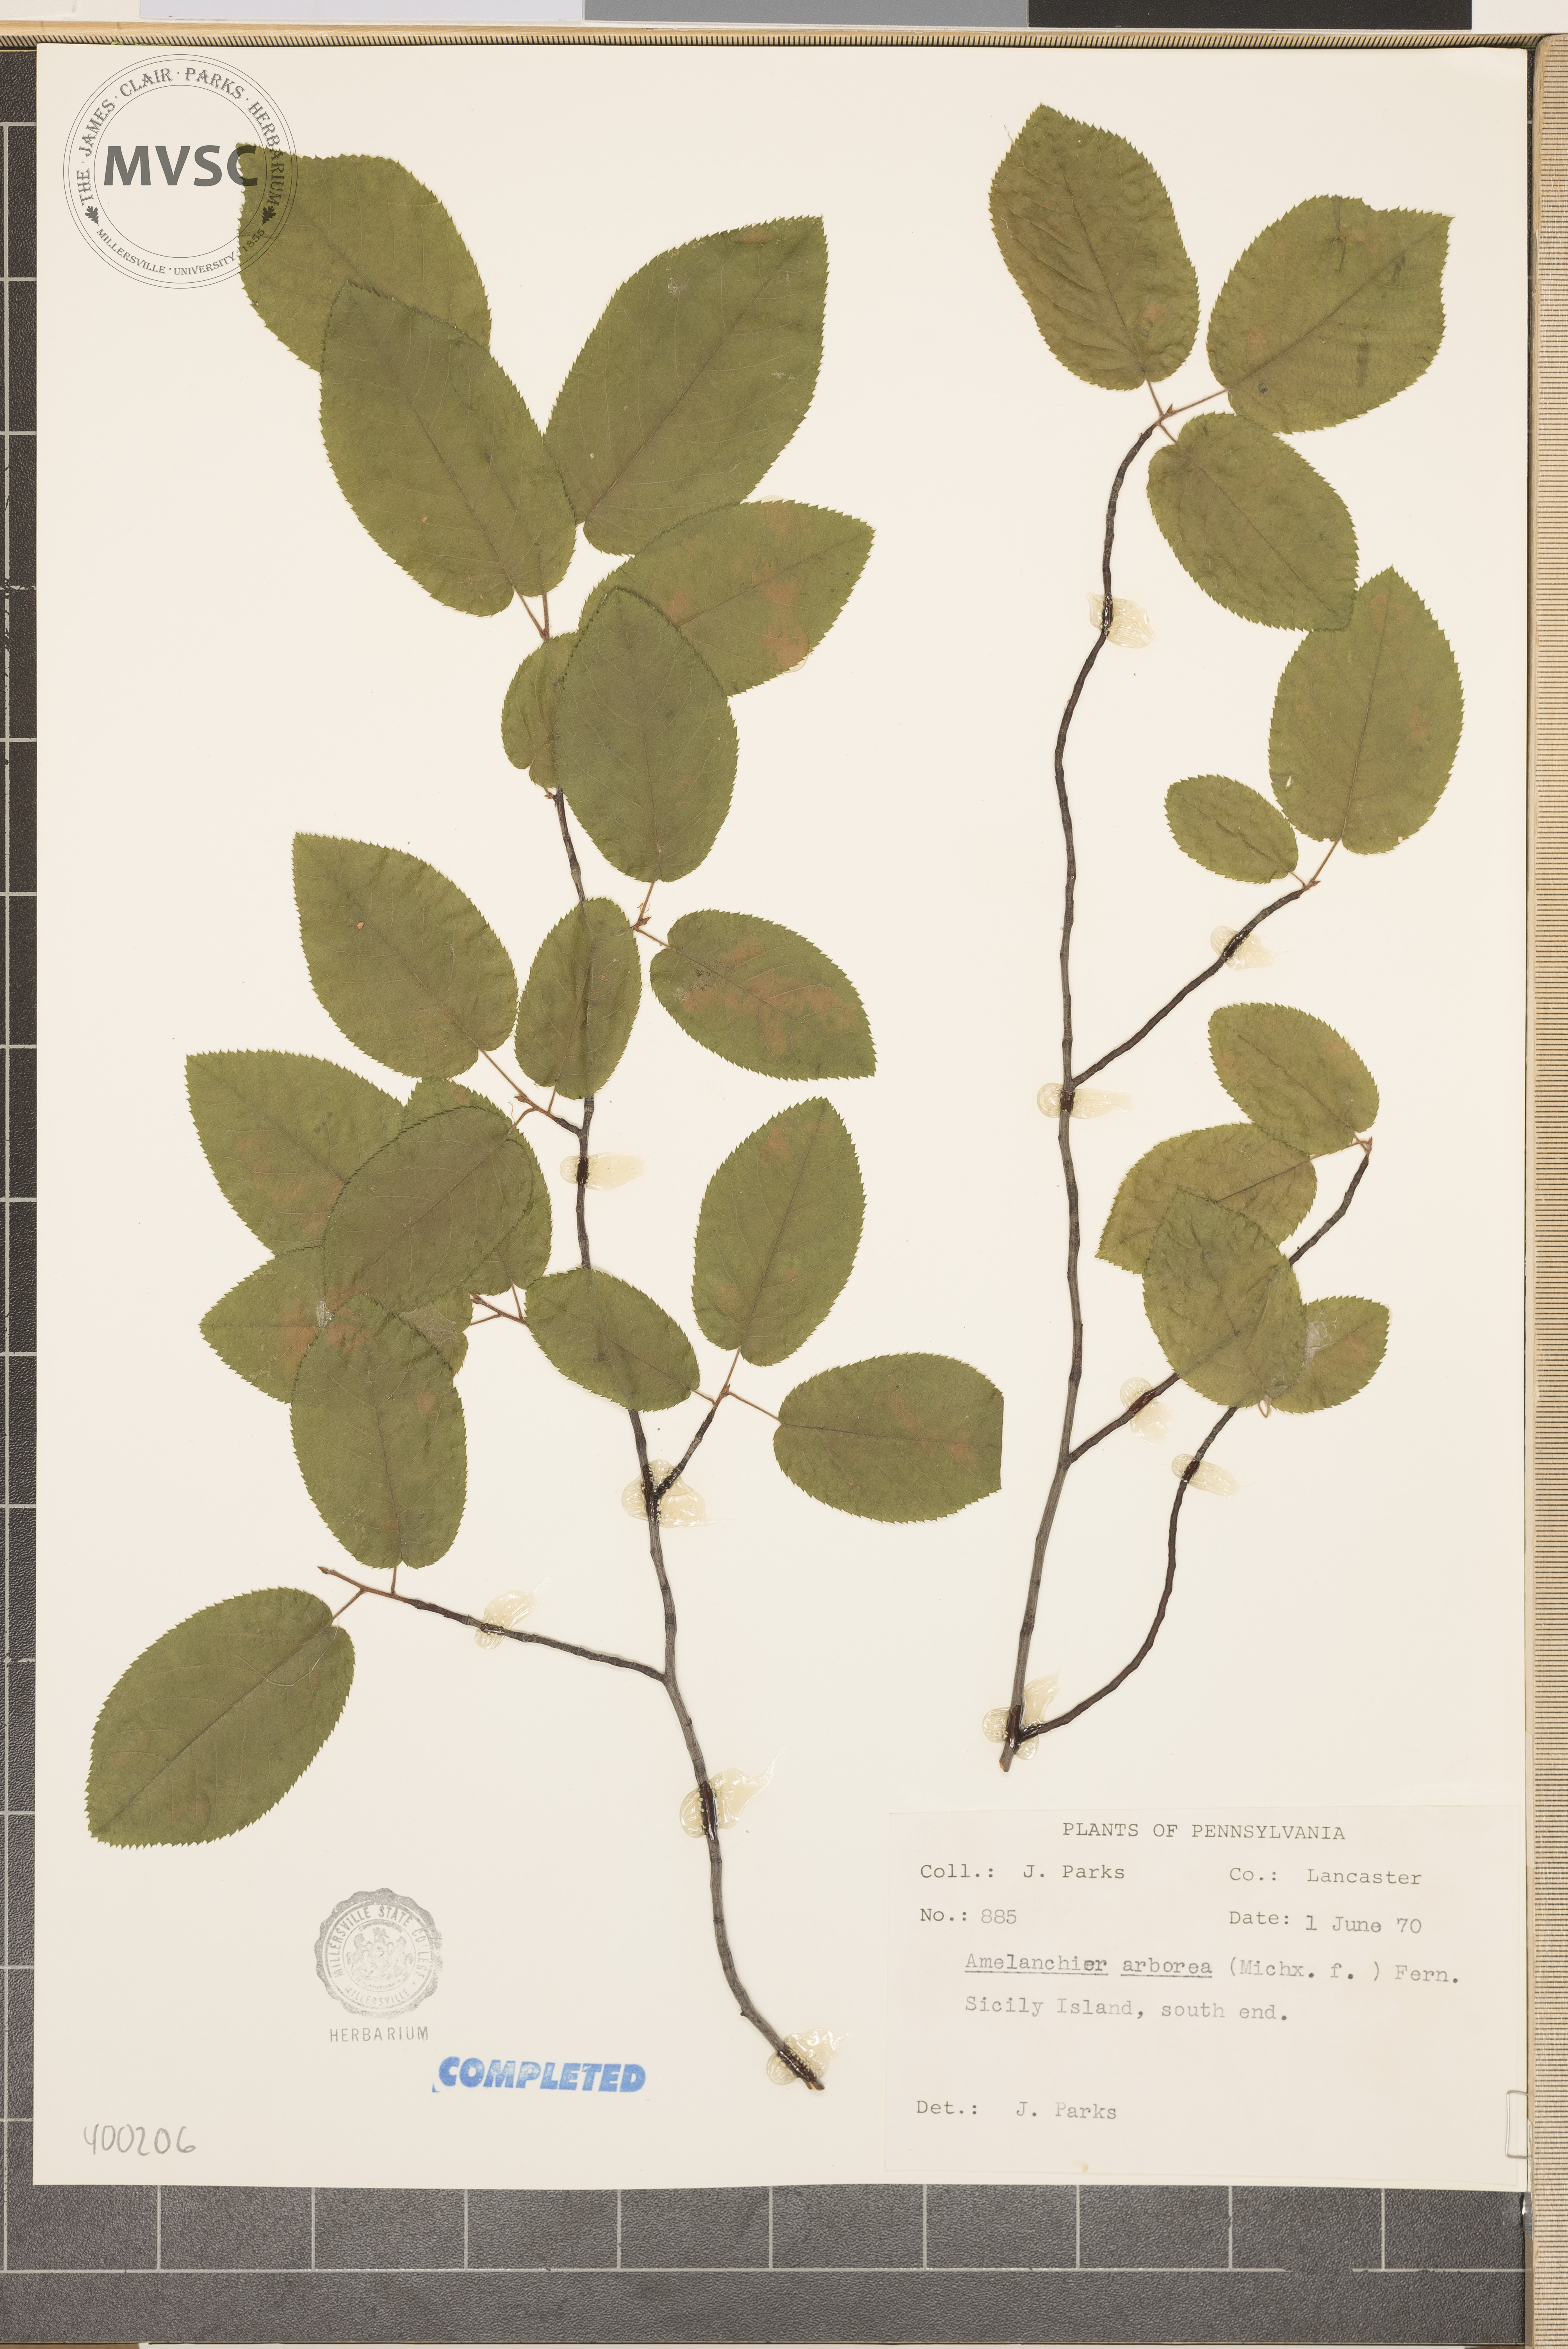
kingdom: Plantae
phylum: Tracheophyta
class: Magnoliopsida
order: Rosales
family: Rosaceae
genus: Amelanchier
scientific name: Amelanchier arborea
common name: serviceberry
